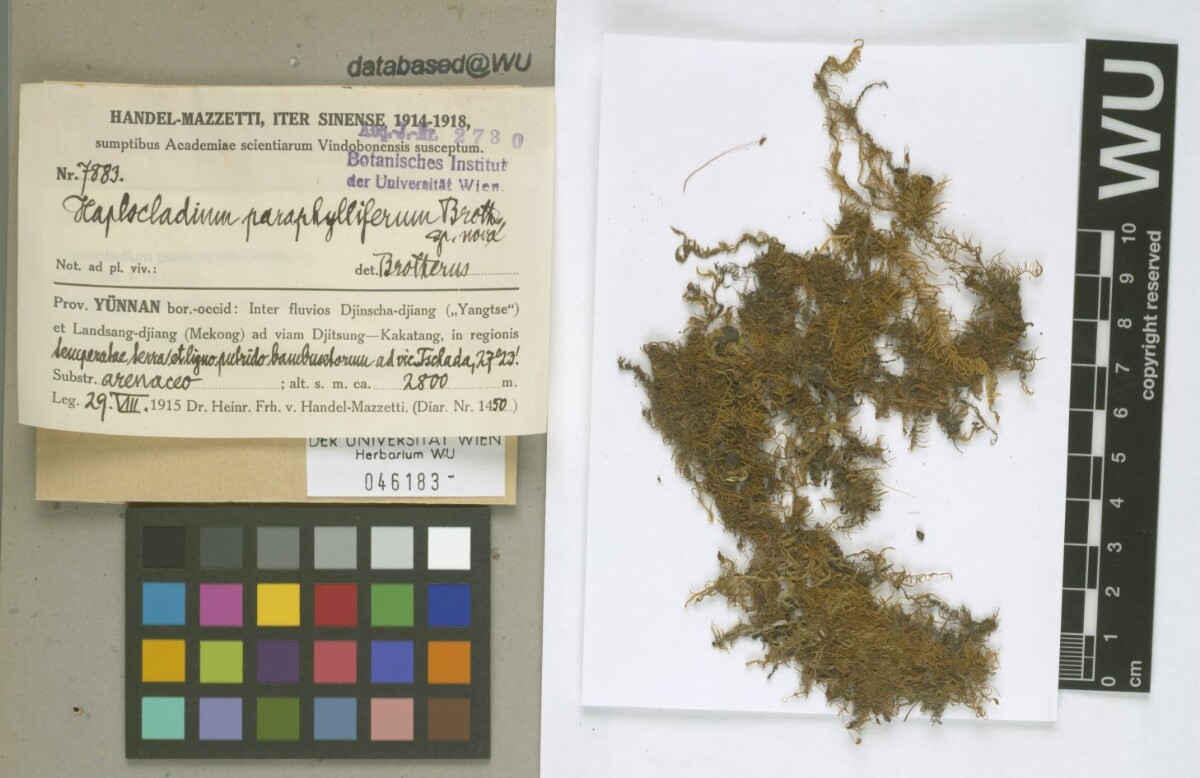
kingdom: Plantae
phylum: Bryophyta
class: Bryopsida
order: Hypnales
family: Leskeaceae
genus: Haplocladium
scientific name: Haplocladium microphyllum
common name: Tiny-leaved haplocladium
